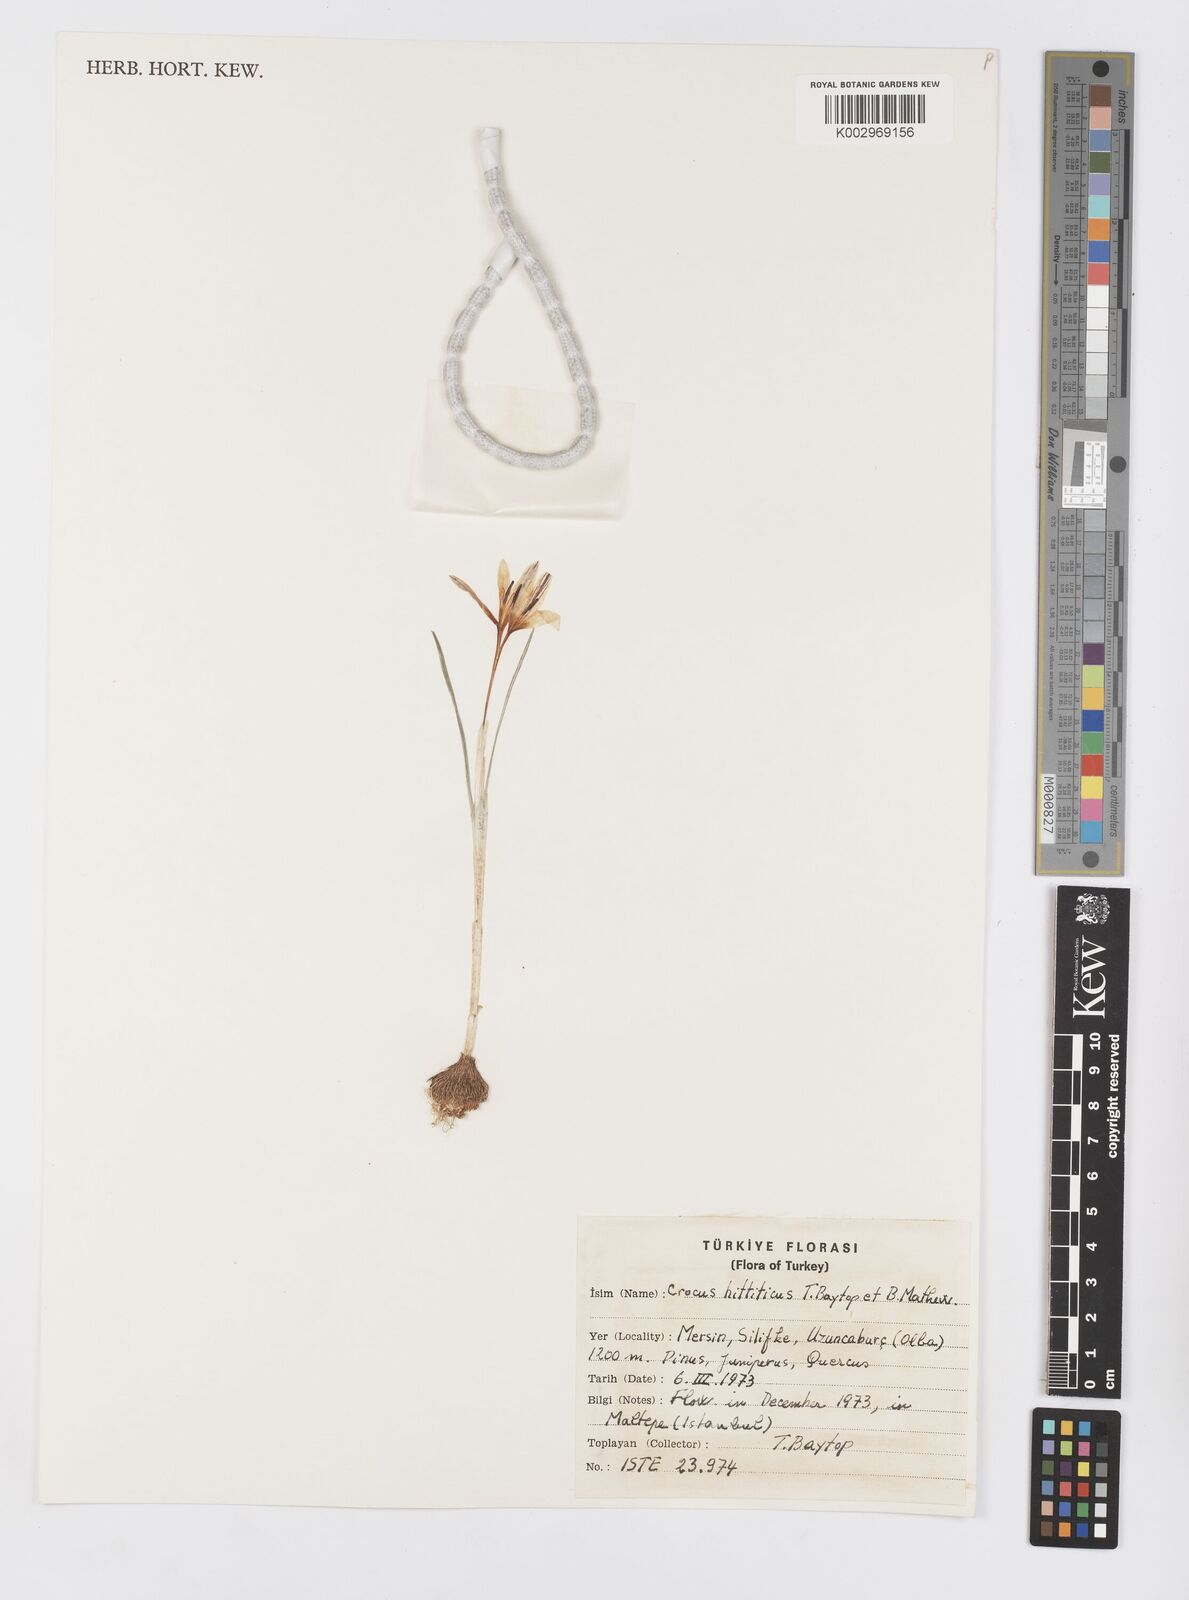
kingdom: Plantae
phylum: Tracheophyta
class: Liliopsida
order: Asparagales
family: Iridaceae
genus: Crocus
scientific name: Crocus hittiticus
